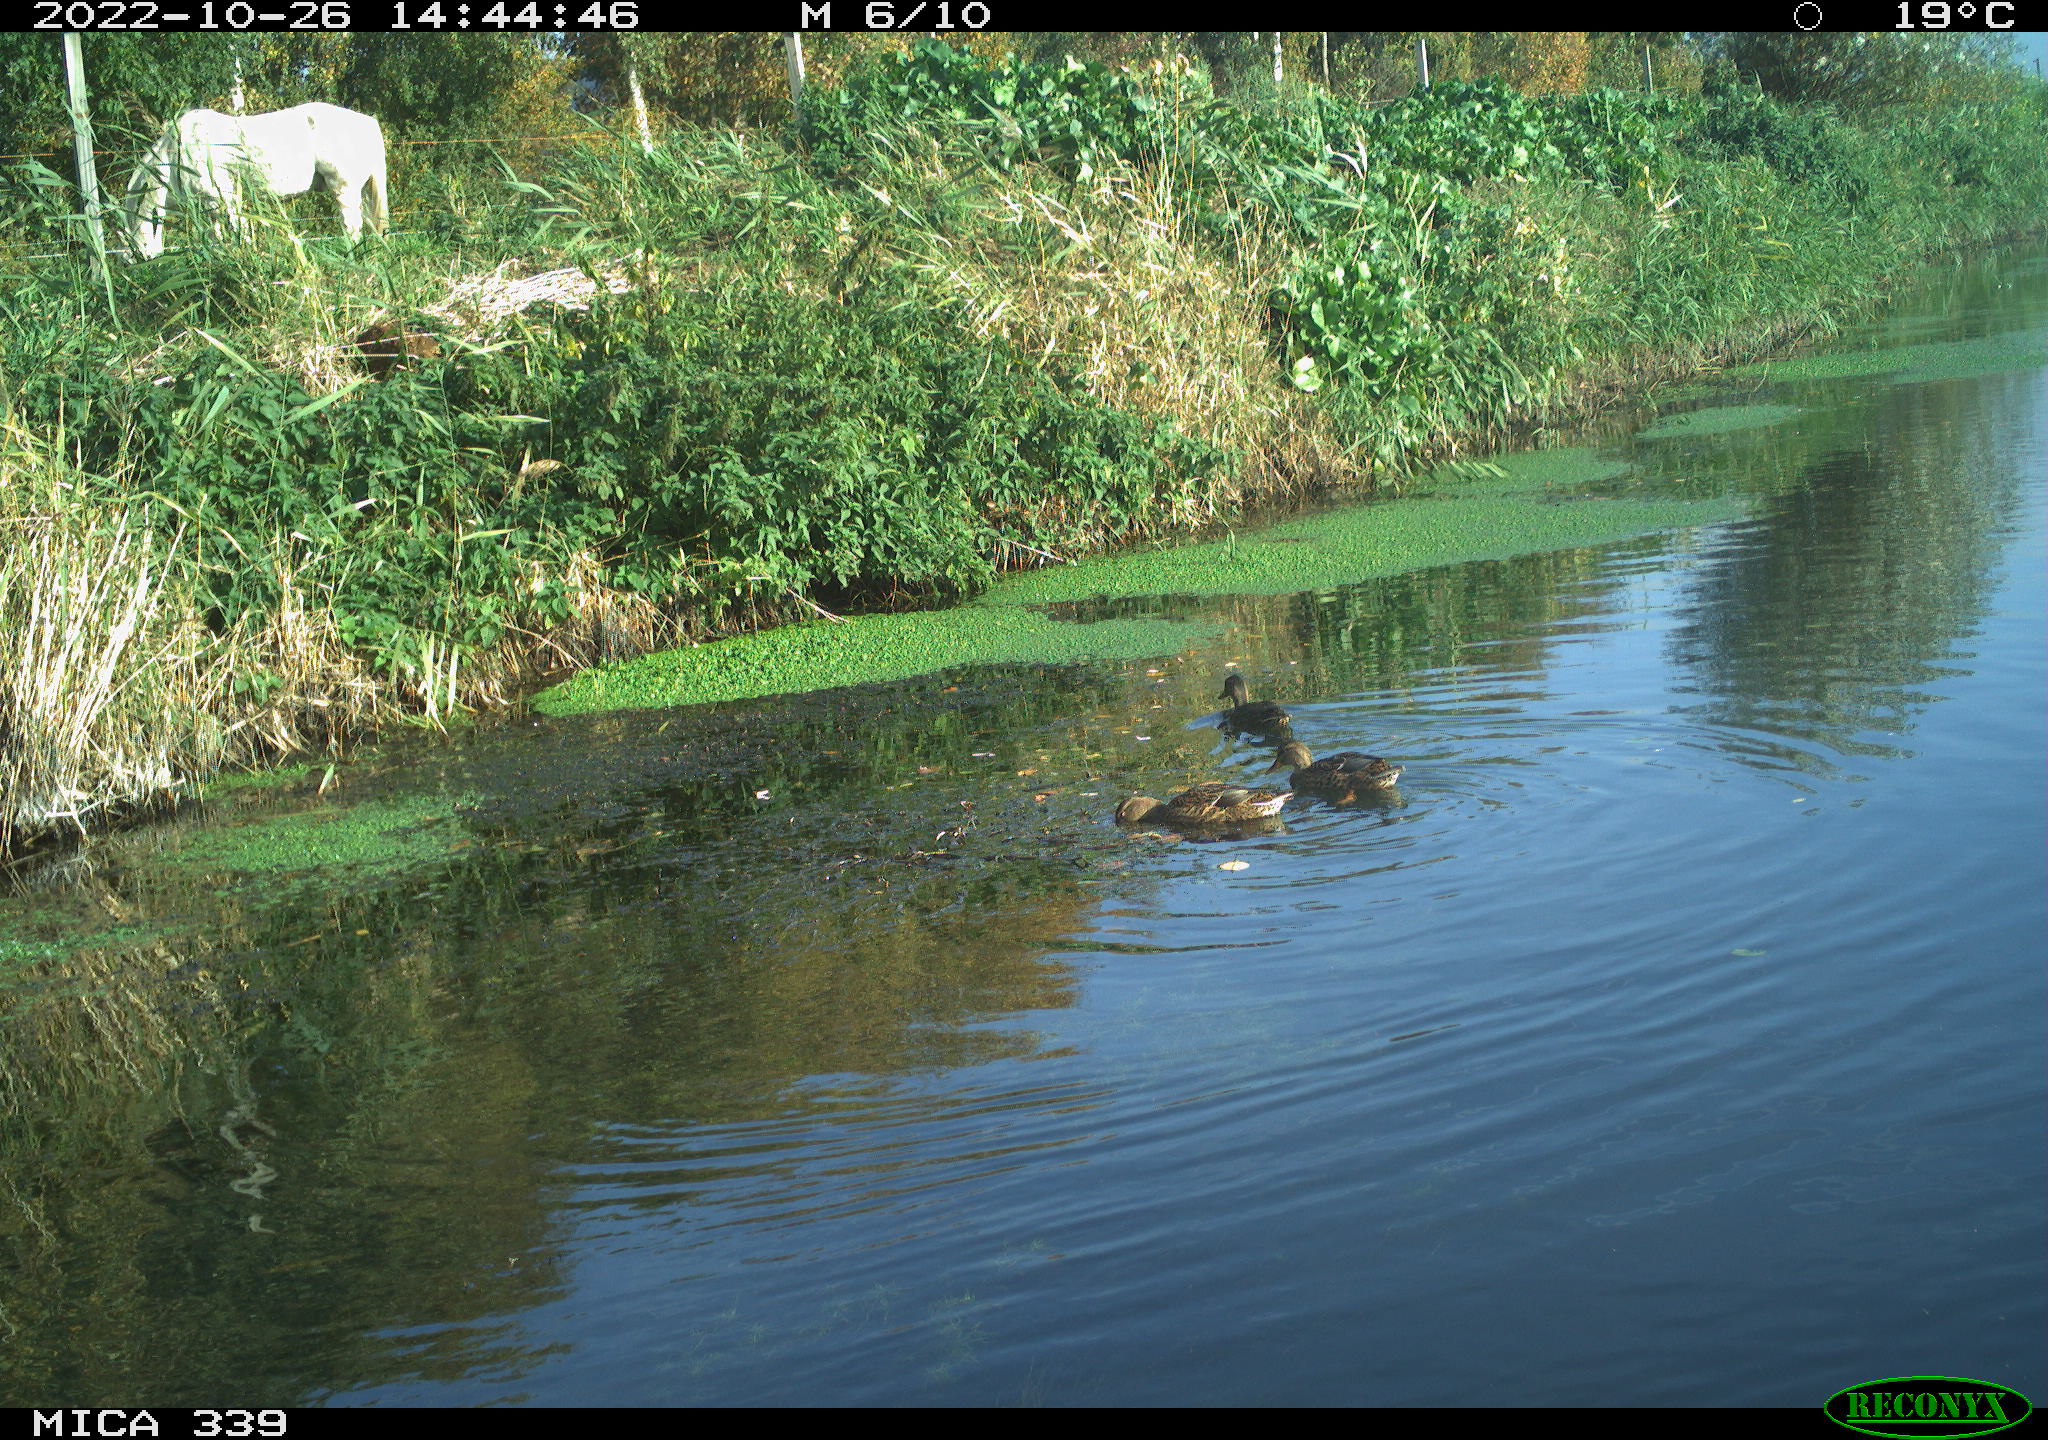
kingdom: Animalia
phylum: Chordata
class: Aves
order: Anseriformes
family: Anatidae
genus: Anas
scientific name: Anas platyrhynchos
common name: Mallard
